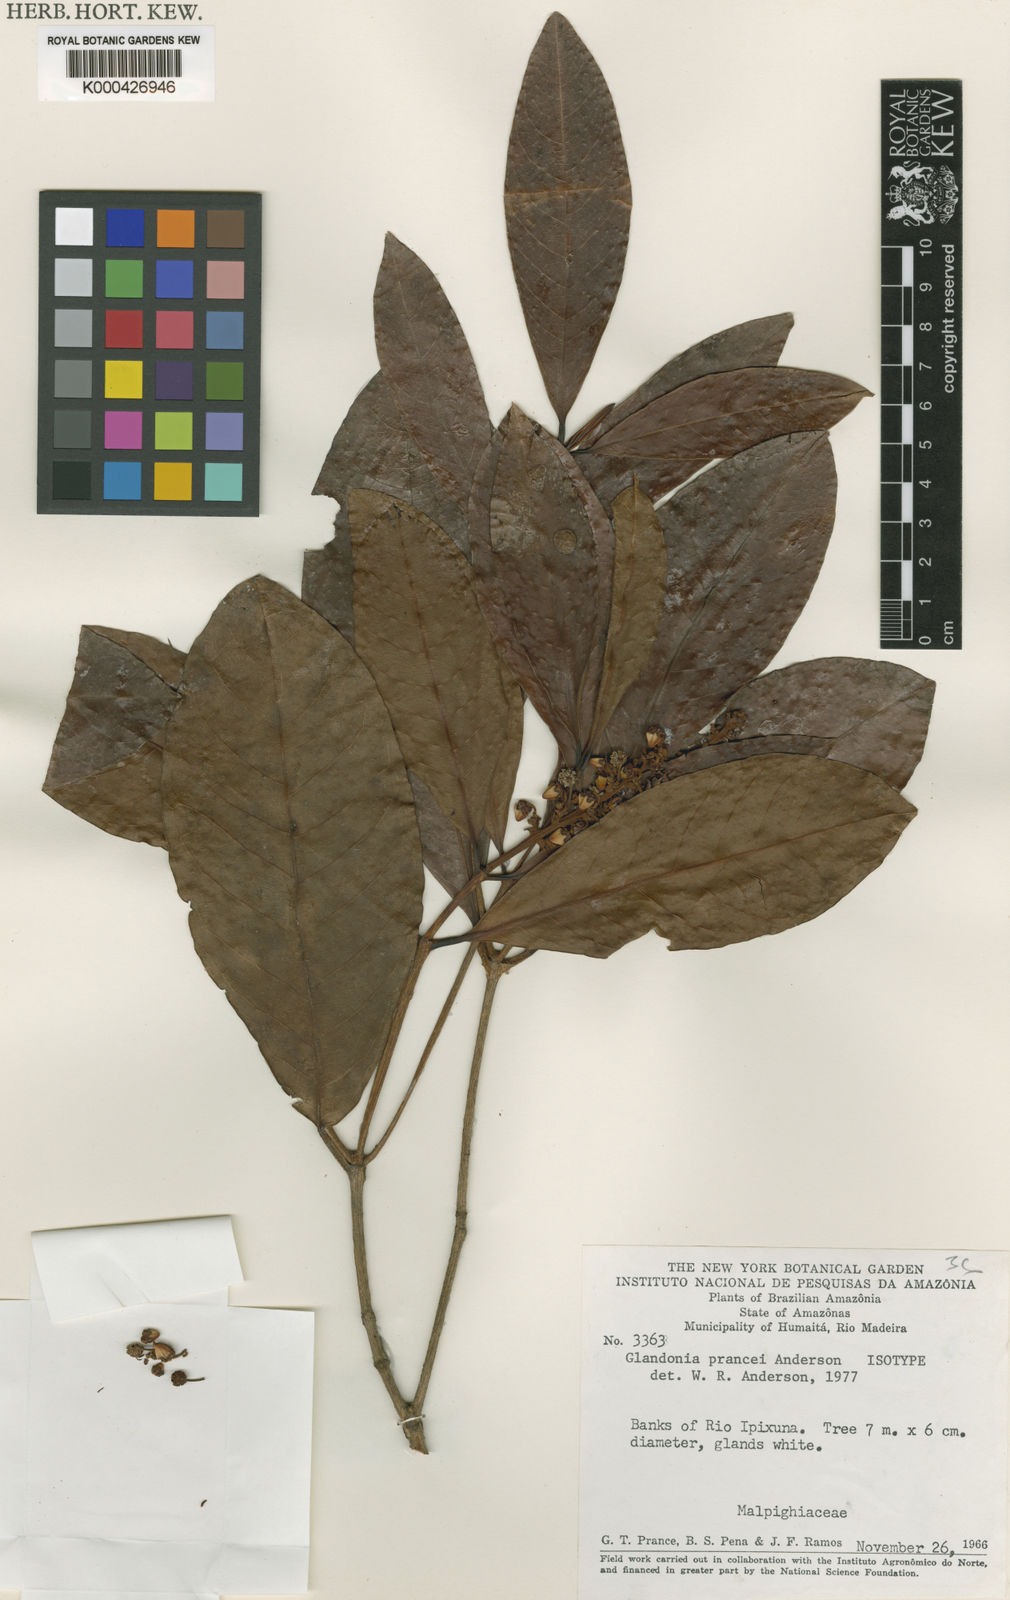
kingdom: Plantae
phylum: Tracheophyta
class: Magnoliopsida
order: Malpighiales
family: Malpighiaceae
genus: Glandonia
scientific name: Glandonia prancei
